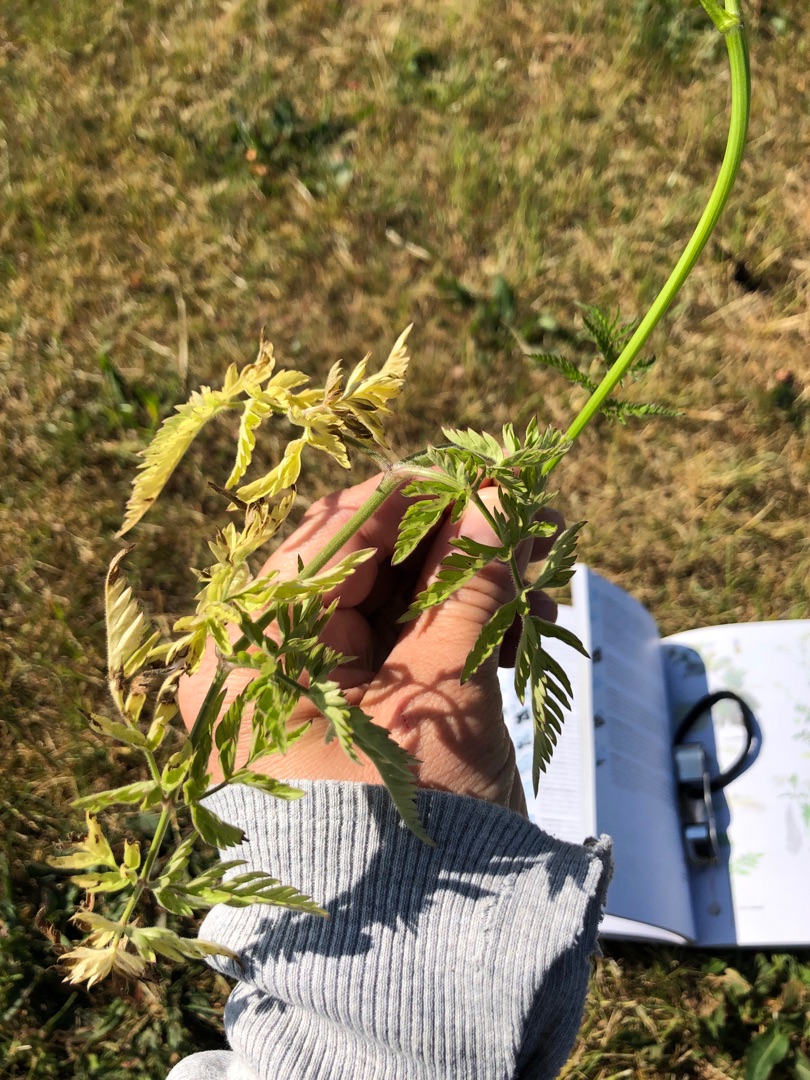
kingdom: Plantae
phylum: Tracheophyta
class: Magnoliopsida
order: Apiales
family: Apiaceae
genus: Anthriscus
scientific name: Anthriscus sylvestris
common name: Vild kørvel
